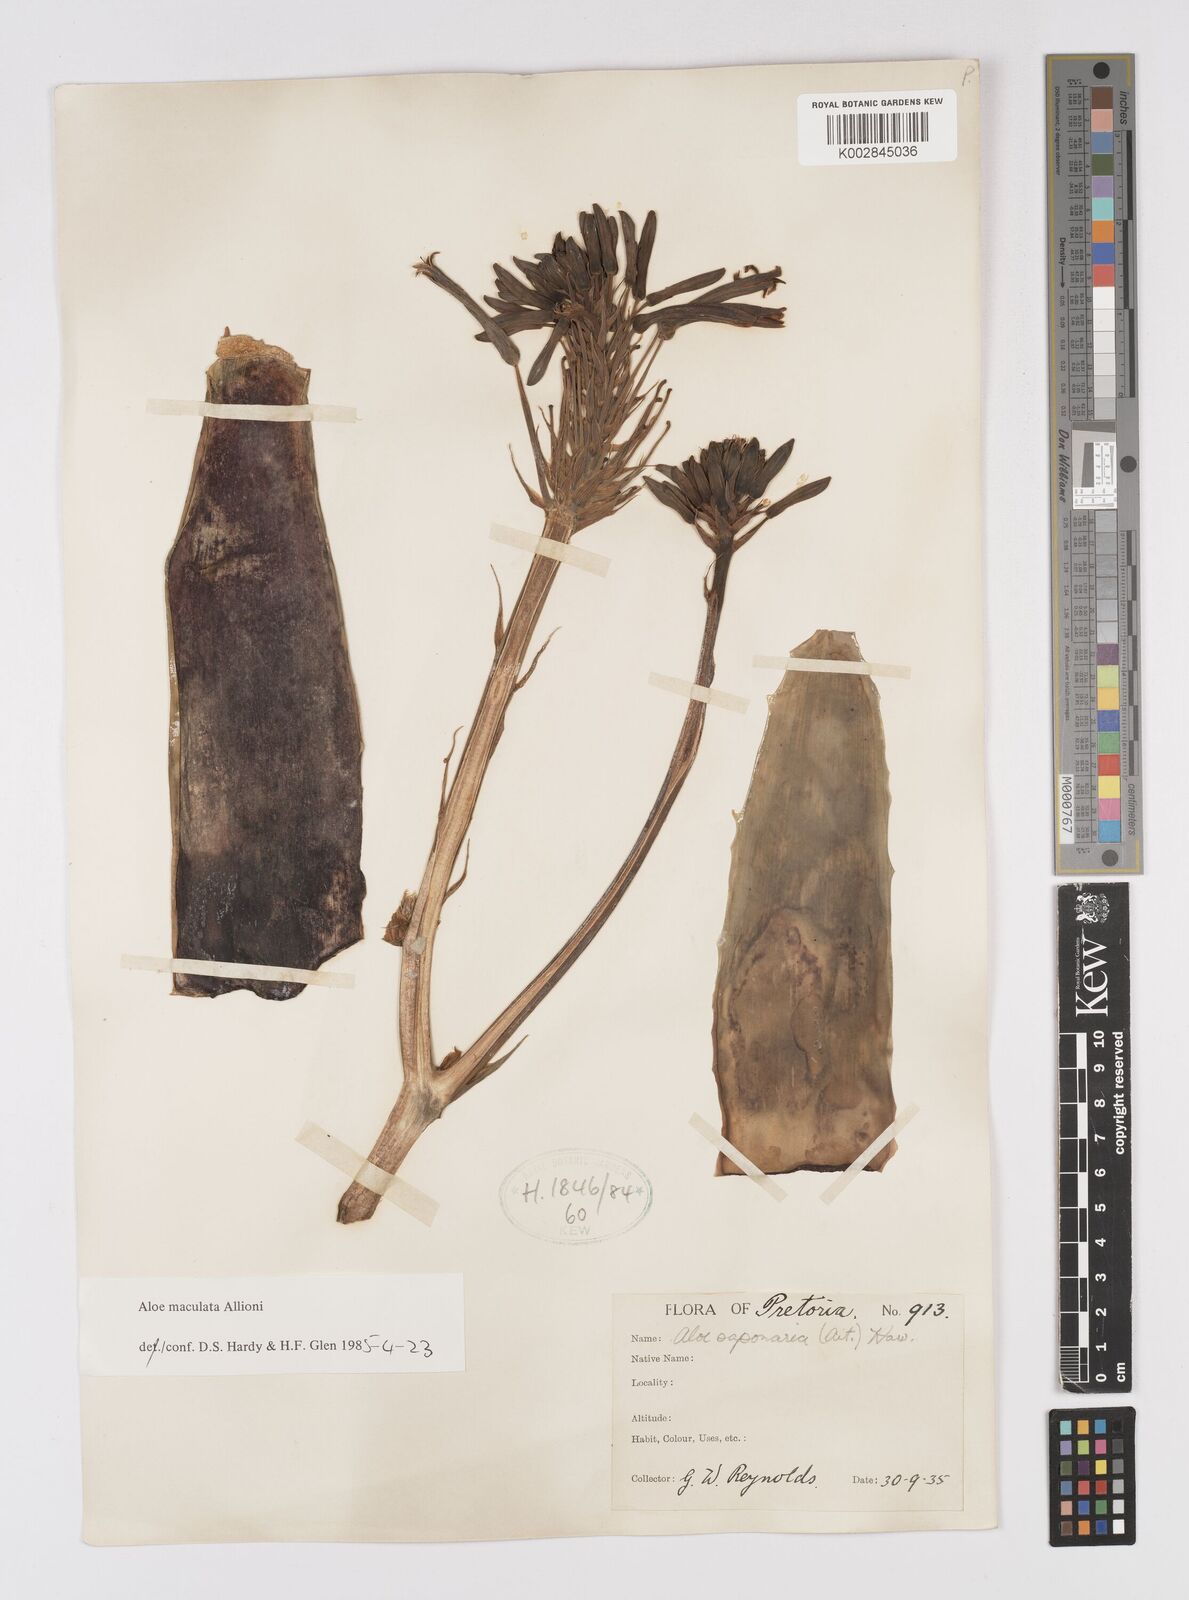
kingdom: Plantae
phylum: Tracheophyta
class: Liliopsida
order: Asparagales
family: Asphodelaceae
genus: Aloe
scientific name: Aloe microstigma
